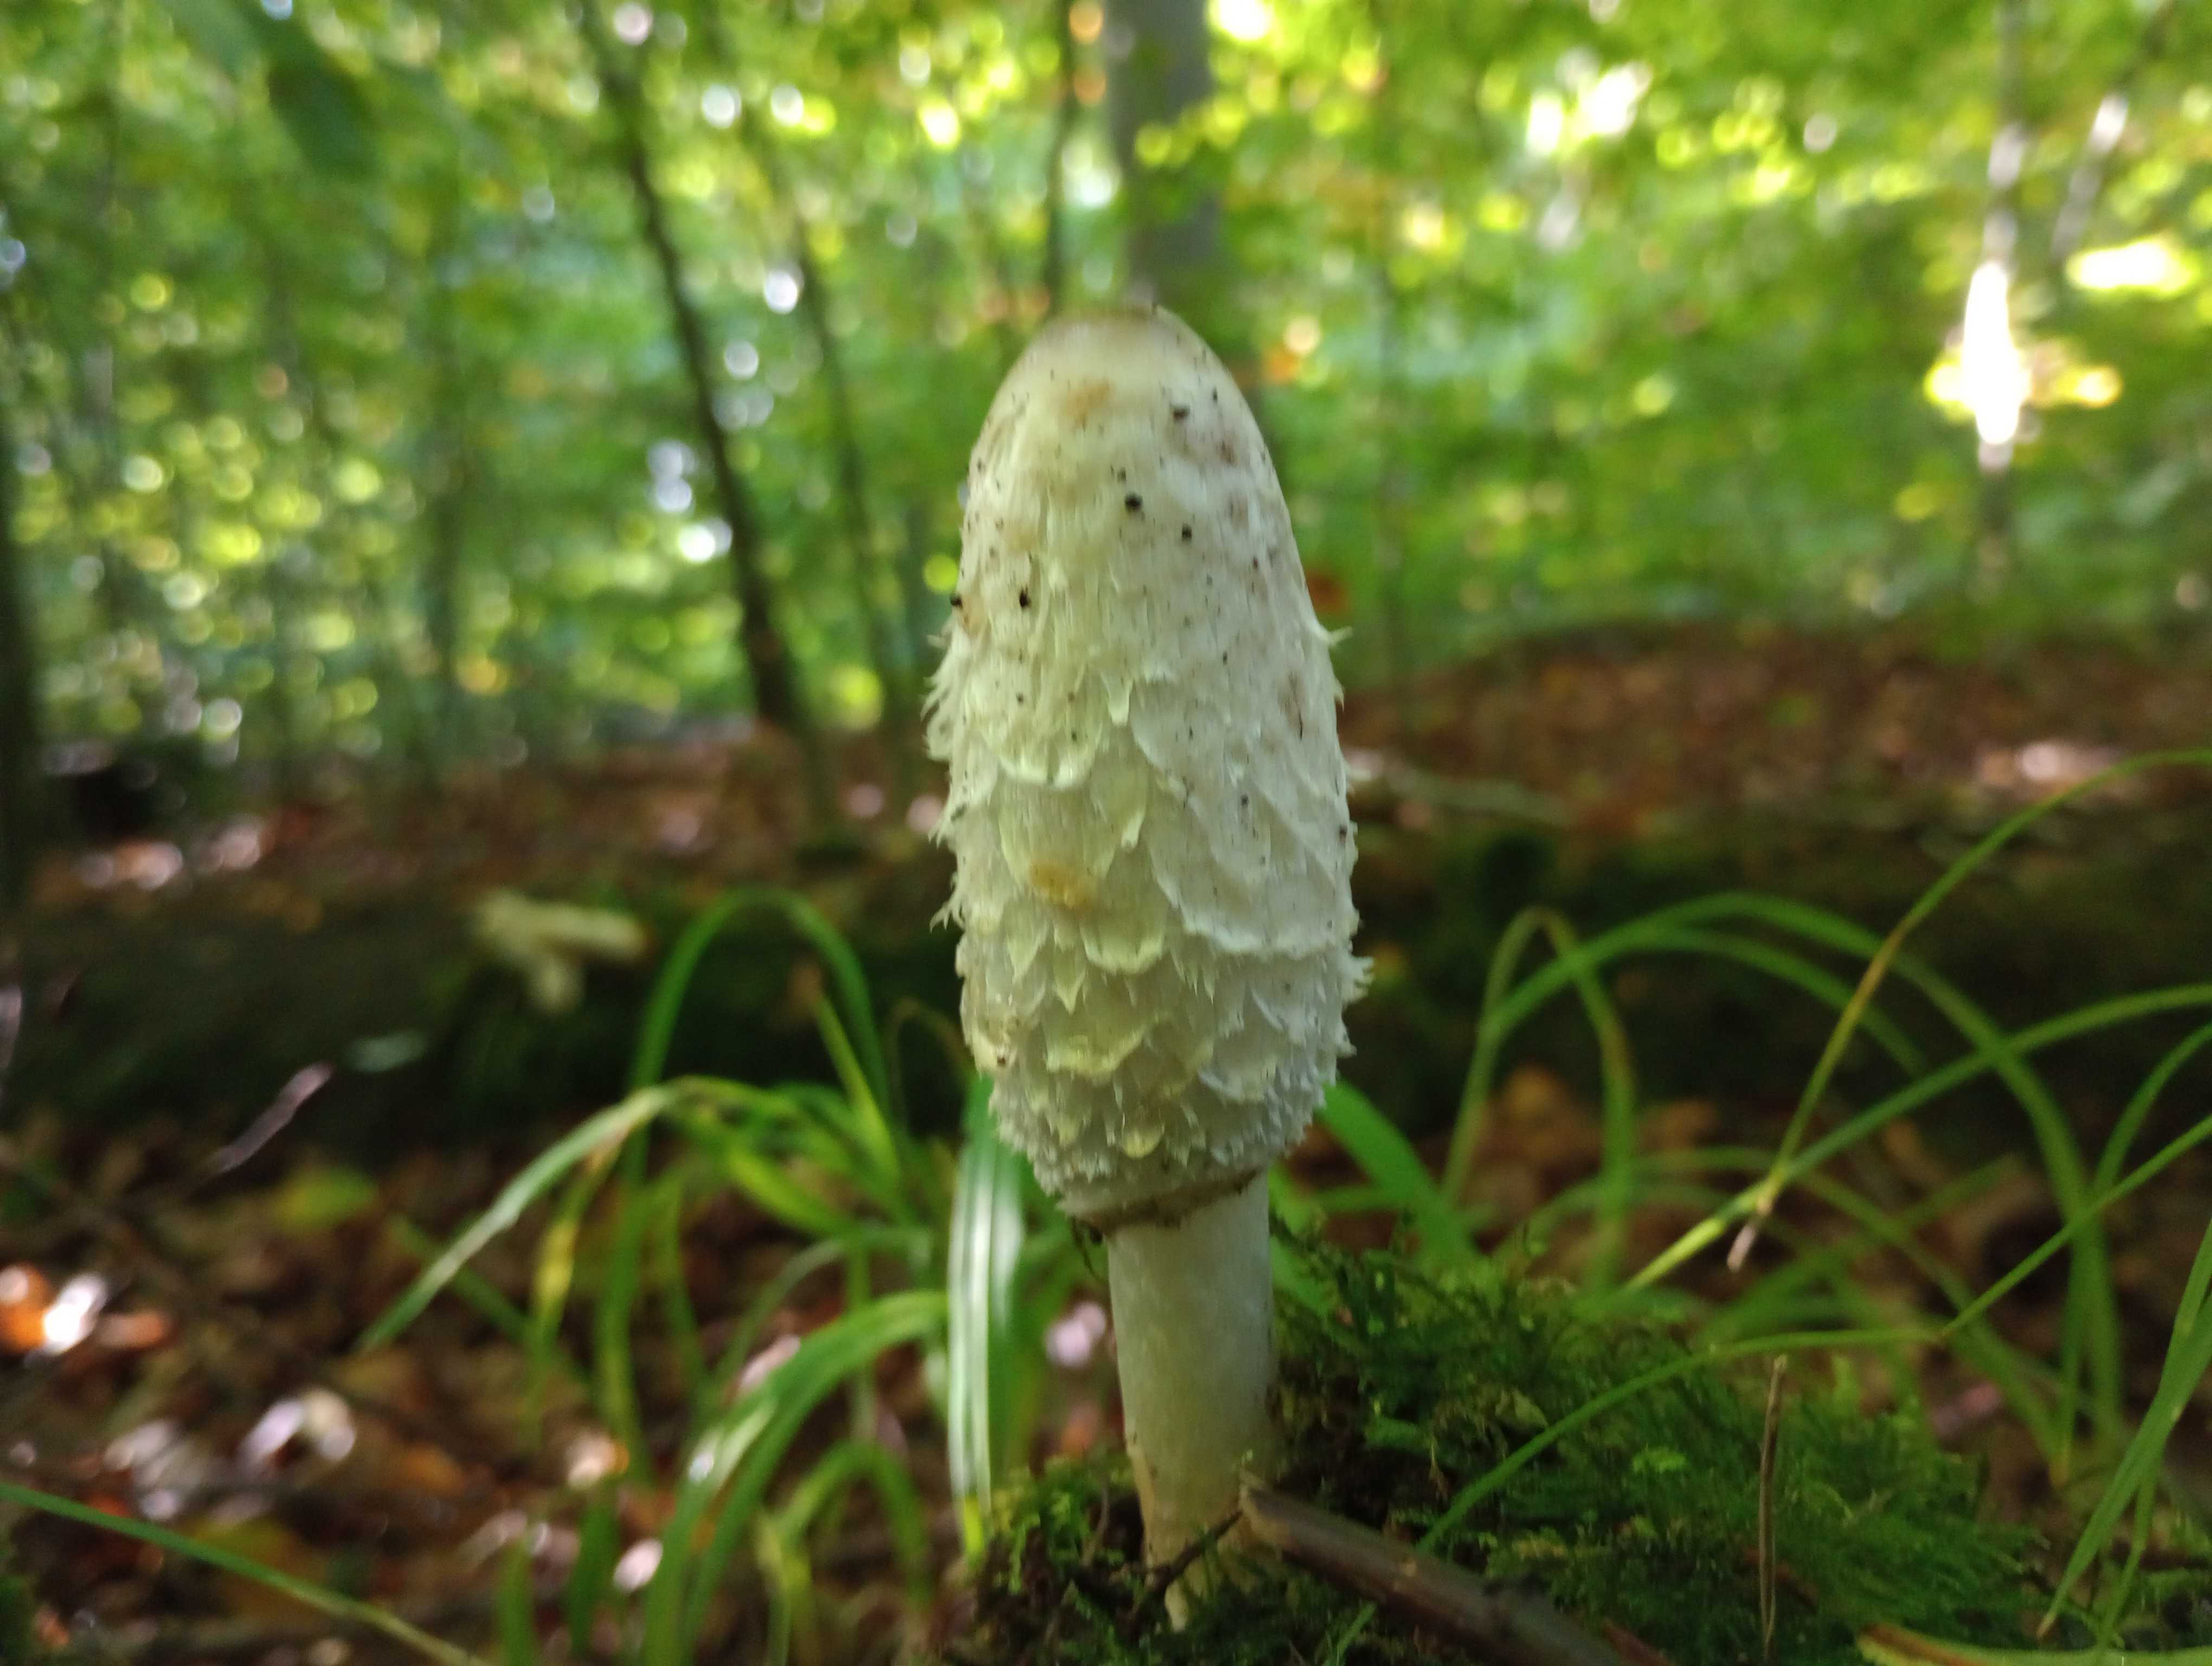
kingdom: Fungi
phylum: Basidiomycota
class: Agaricomycetes
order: Agaricales
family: Agaricaceae
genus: Coprinus
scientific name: Coprinus comatus
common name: stor parykhat
